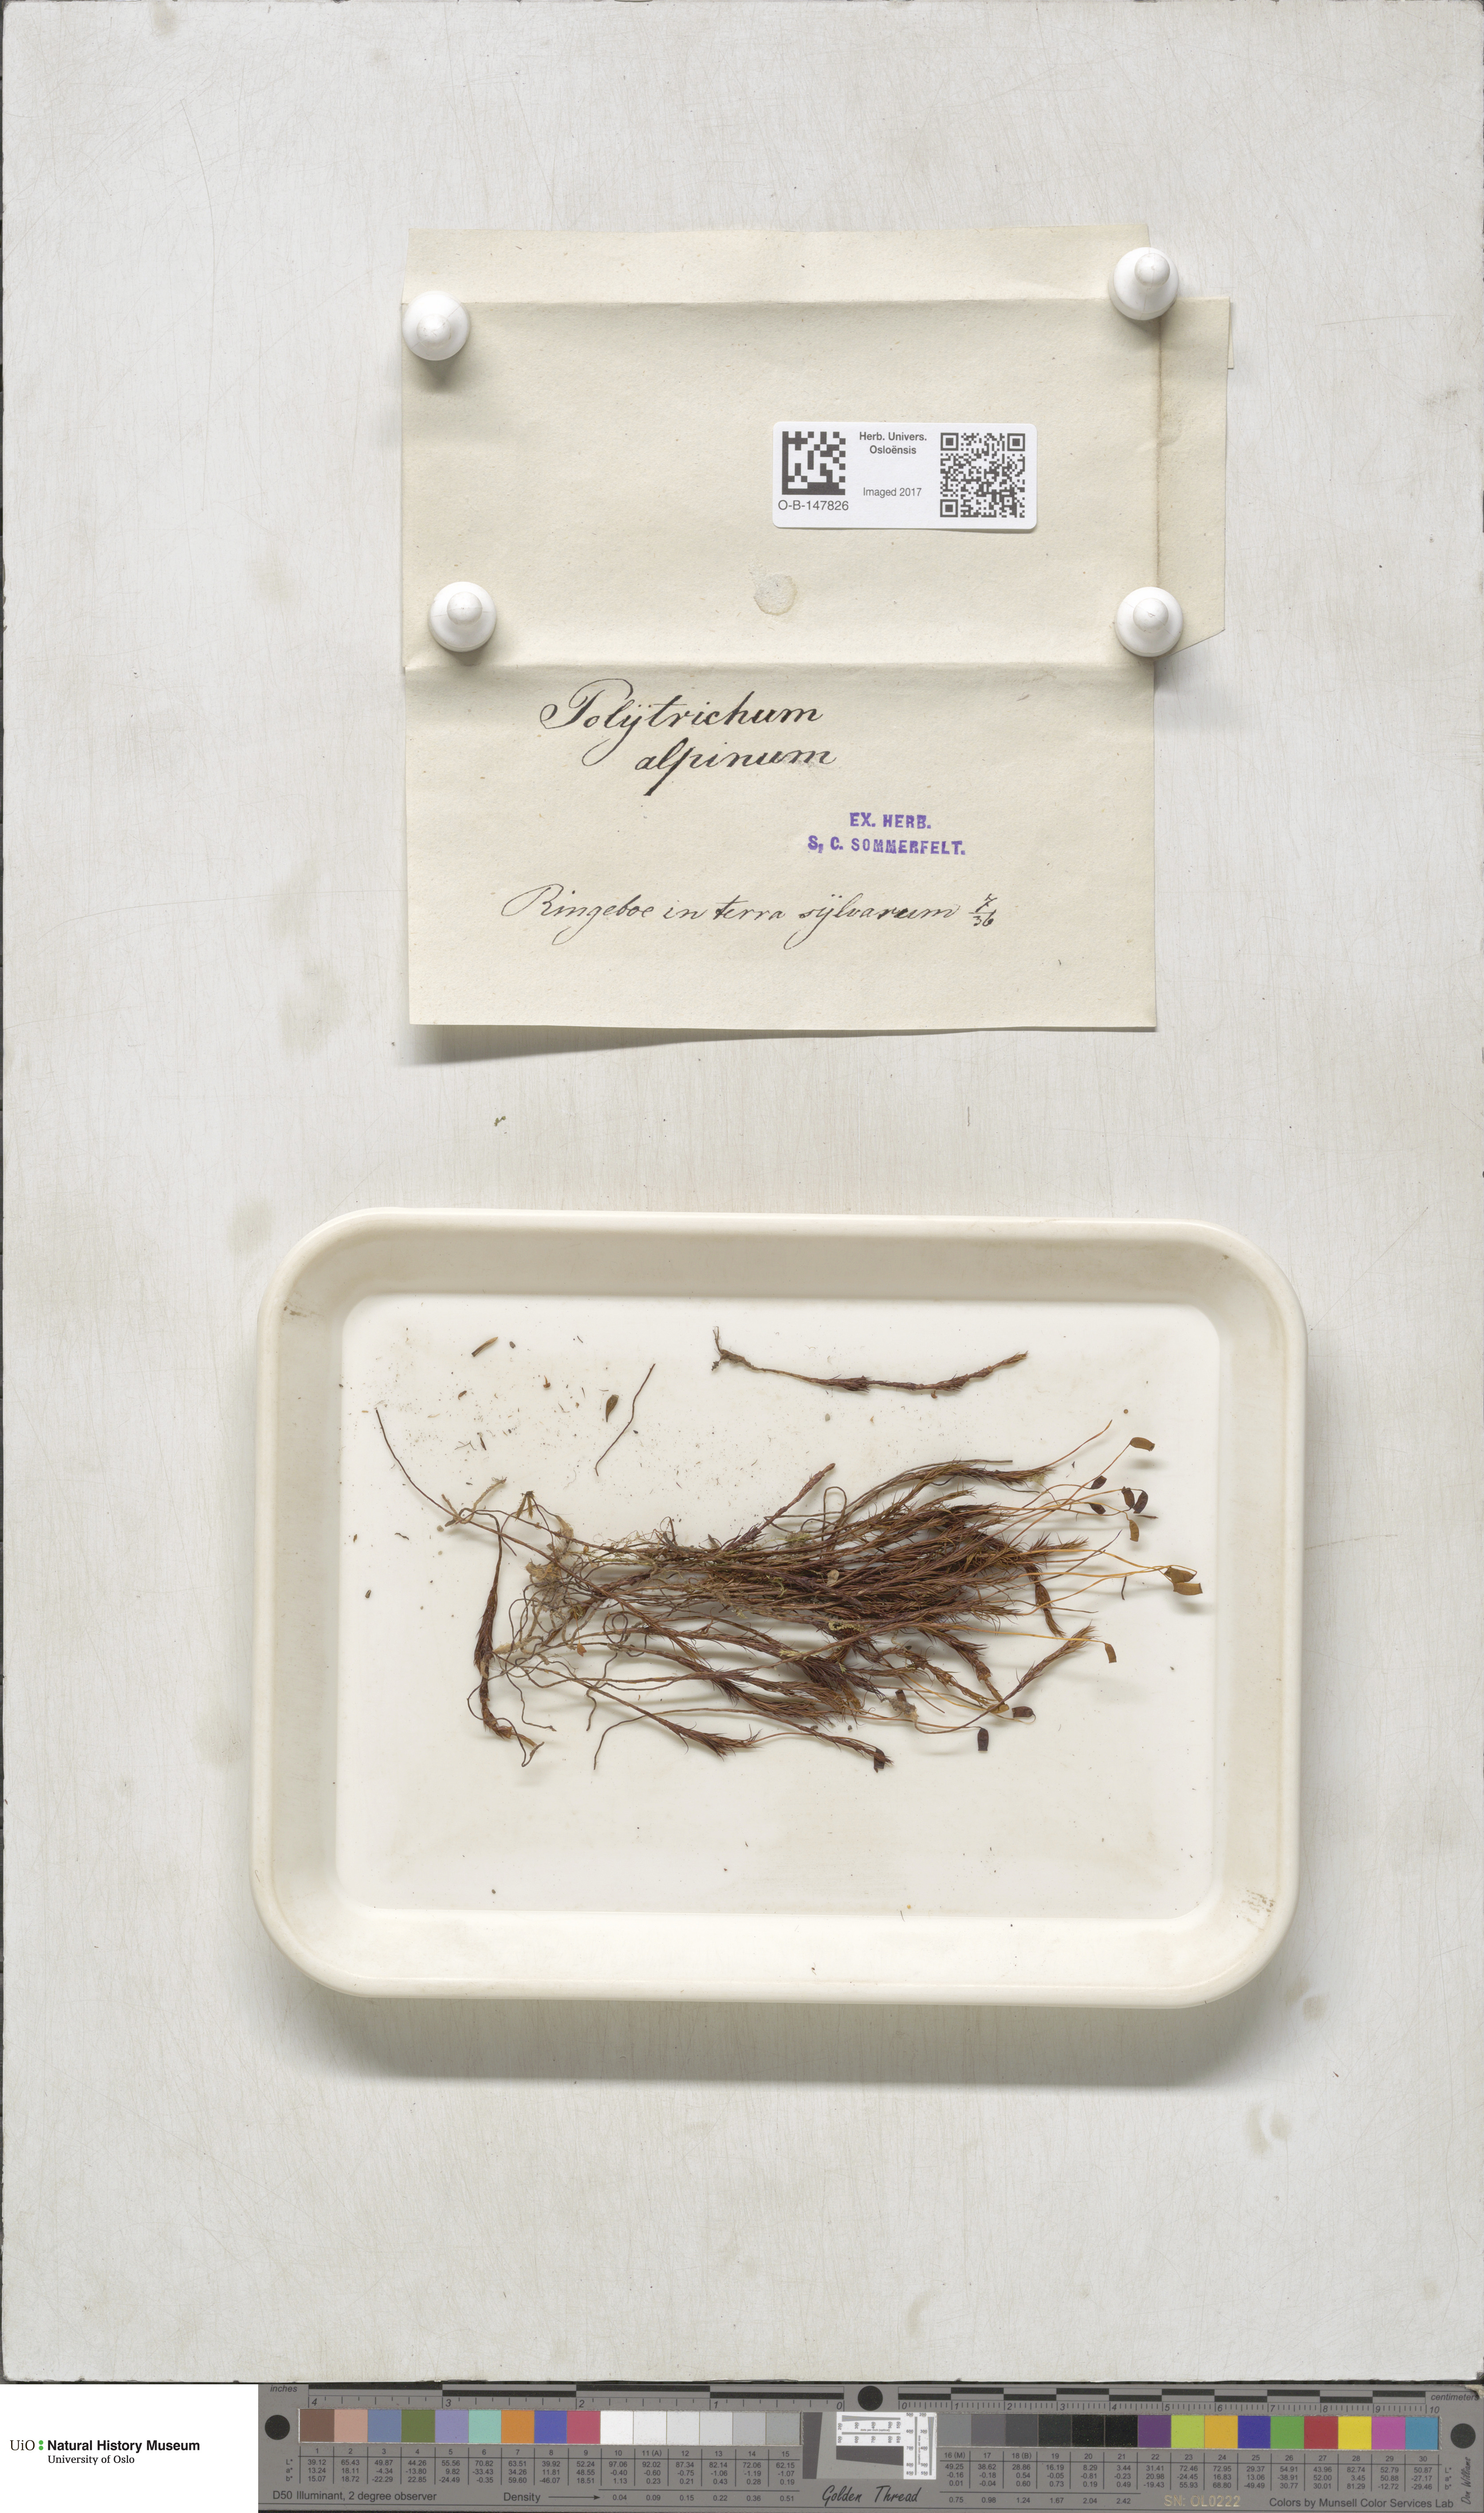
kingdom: Plantae
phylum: Bryophyta
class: Polytrichopsida
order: Polytrichales
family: Polytrichaceae
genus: Polytrichastrum
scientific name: Polytrichastrum alpinum
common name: Alpine haircap
